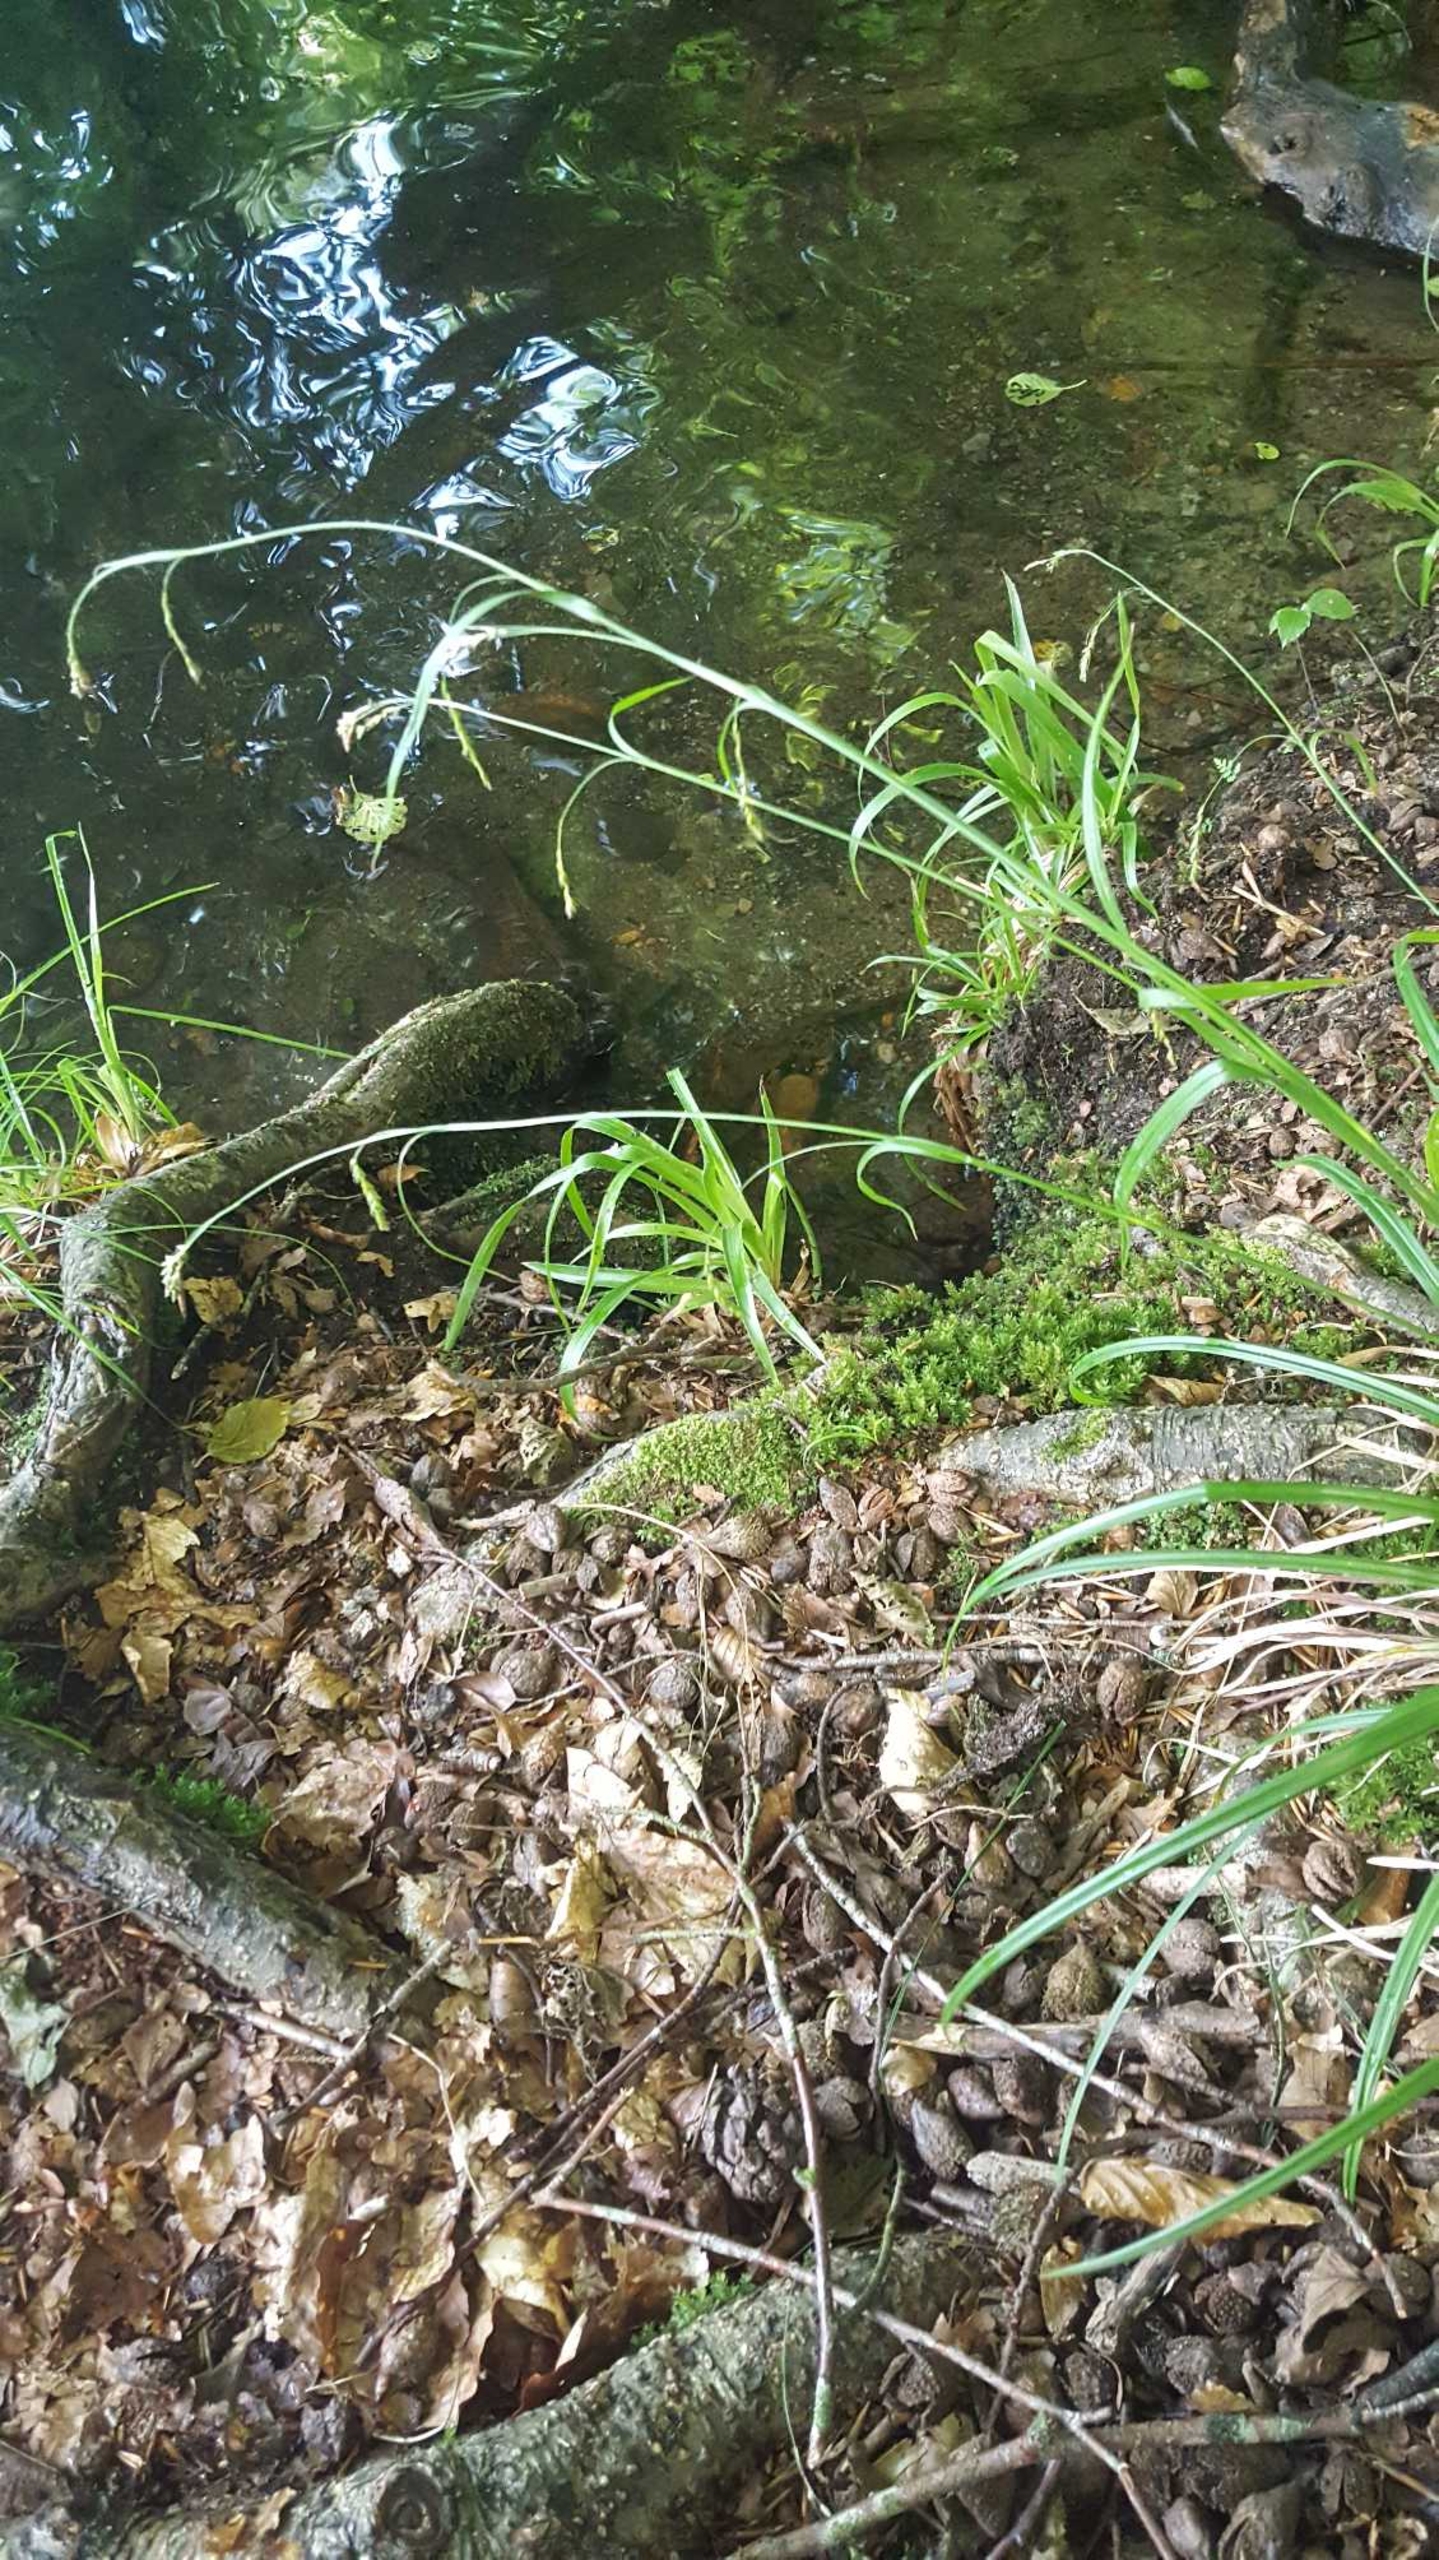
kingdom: Plantae
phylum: Tracheophyta
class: Liliopsida
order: Poales
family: Cyperaceae
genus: Carex
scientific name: Carex sylvatica
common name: Skov-star
